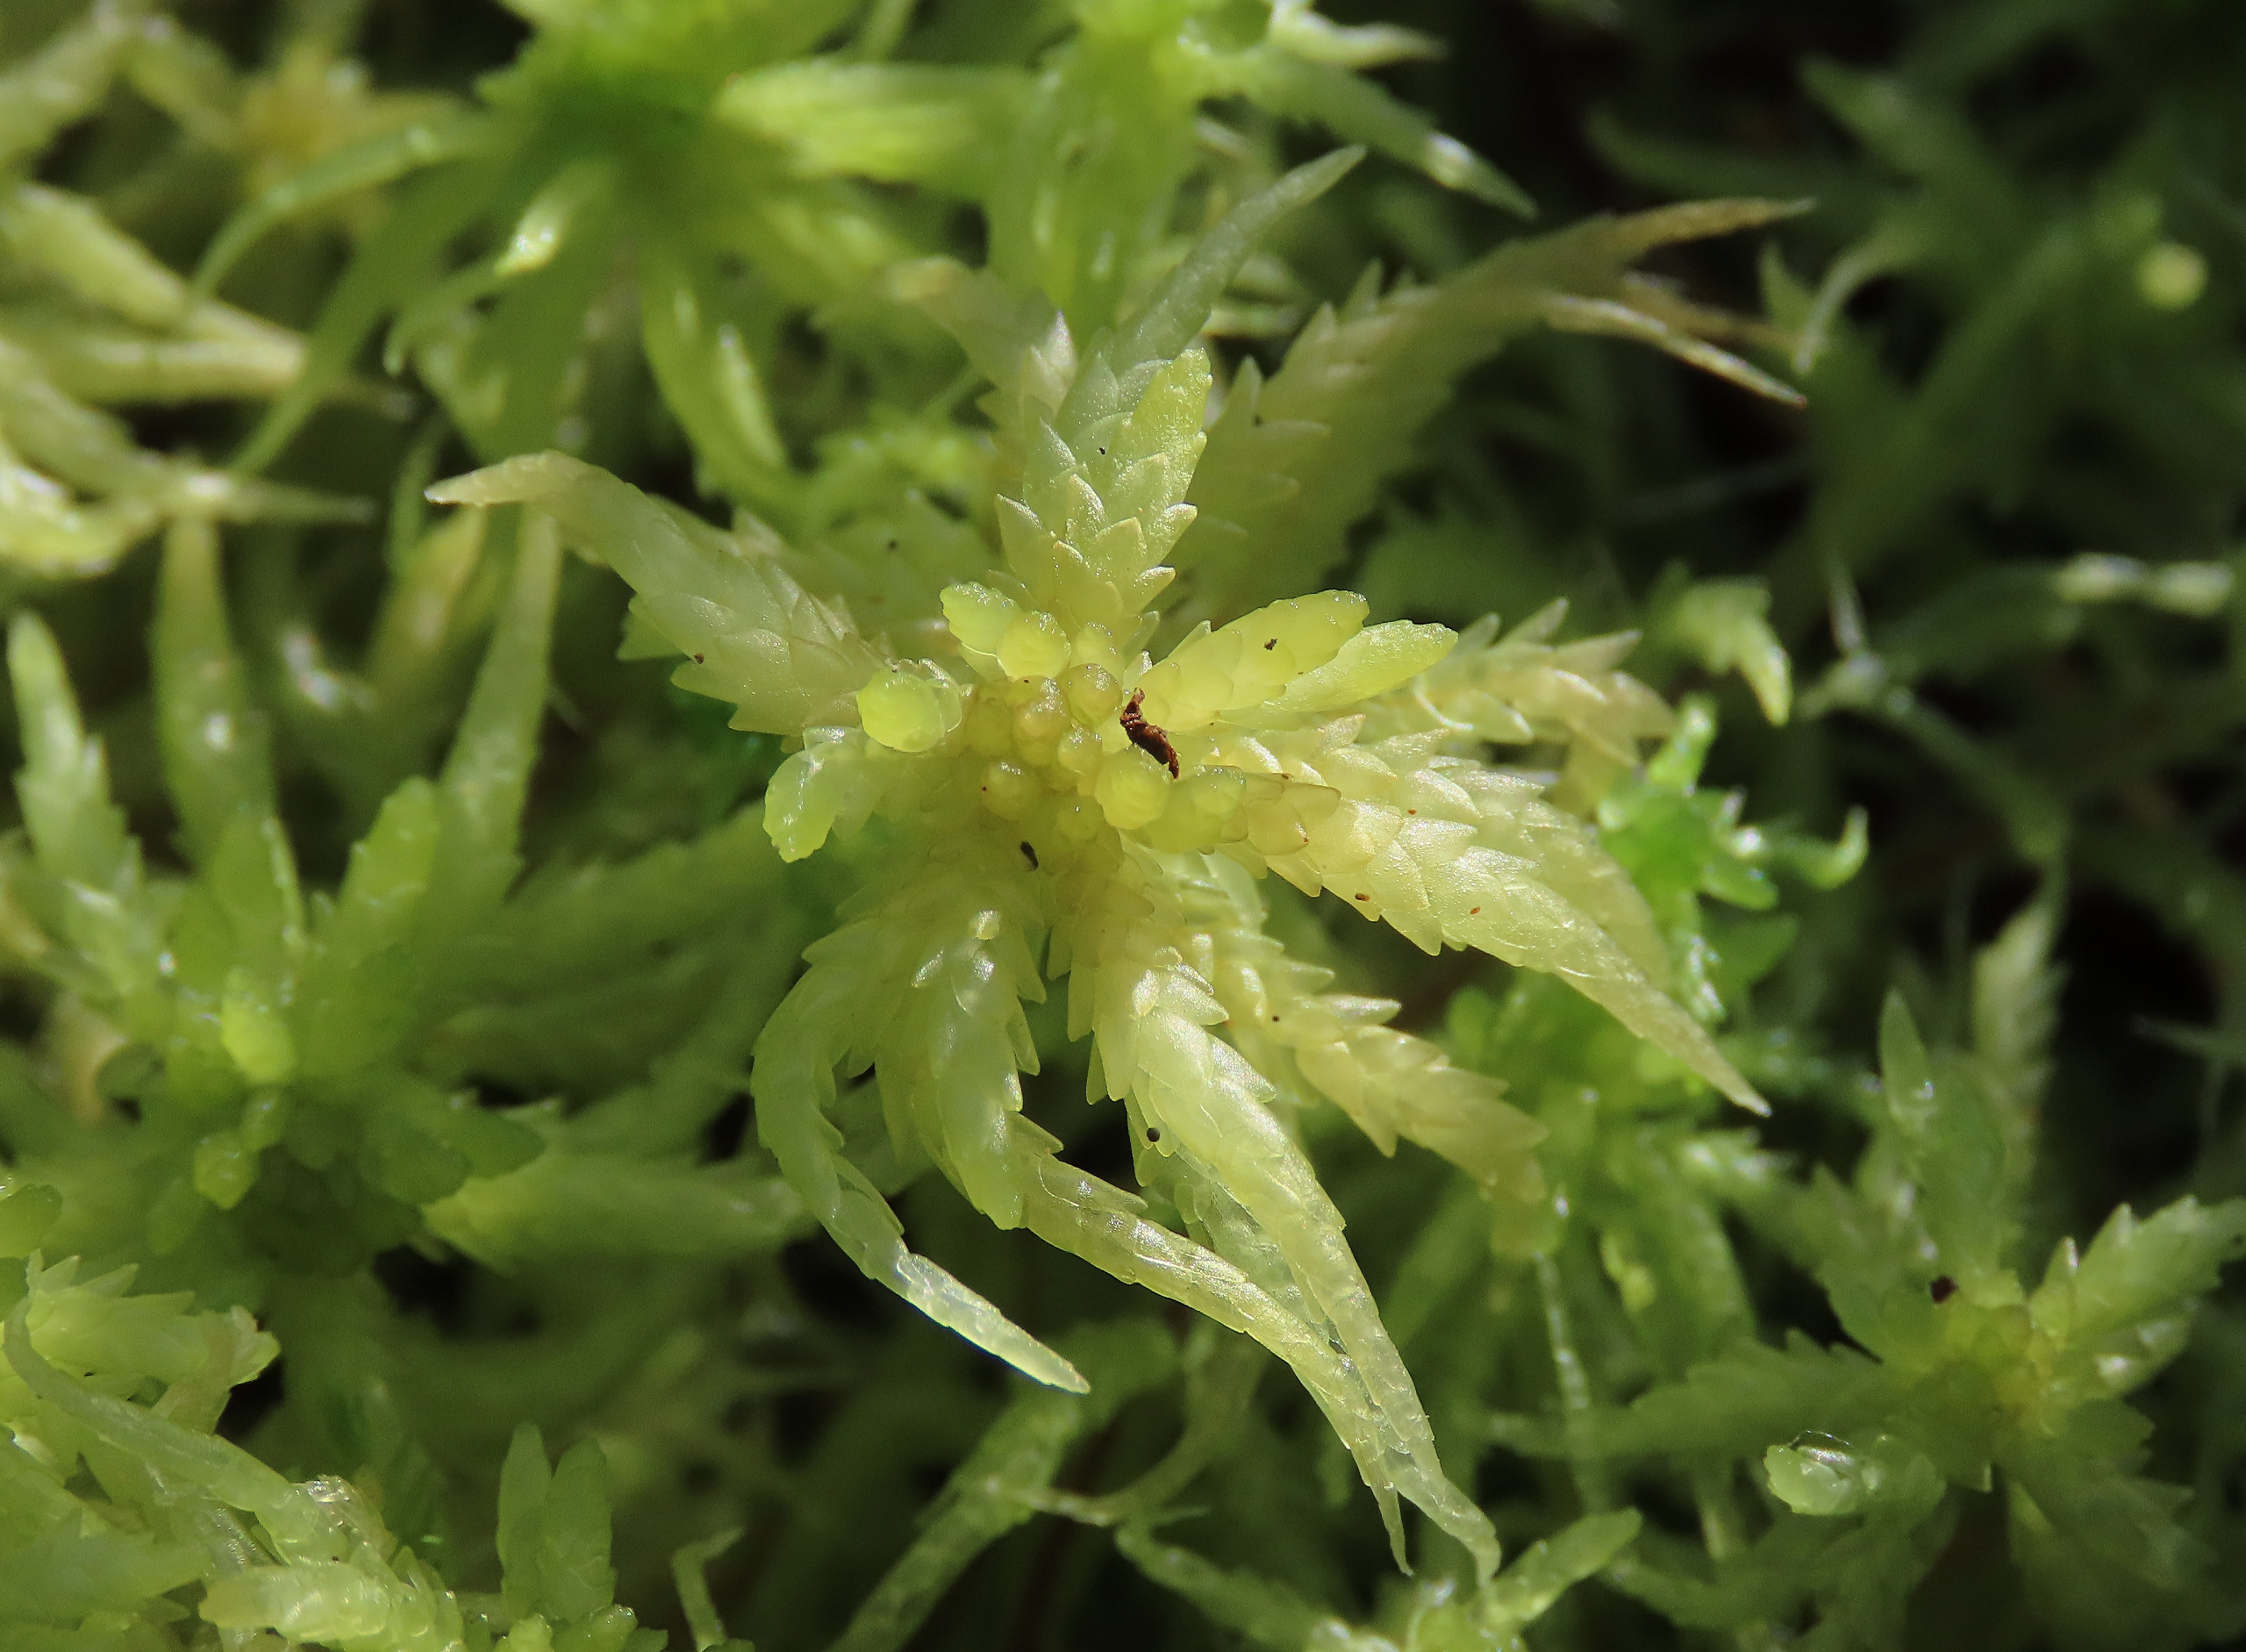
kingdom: Plantae
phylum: Bryophyta
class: Sphagnopsida
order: Sphagnales
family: Sphagnaceae
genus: Sphagnum
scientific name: Sphagnum centrale
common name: Midtstillet tørvemos
